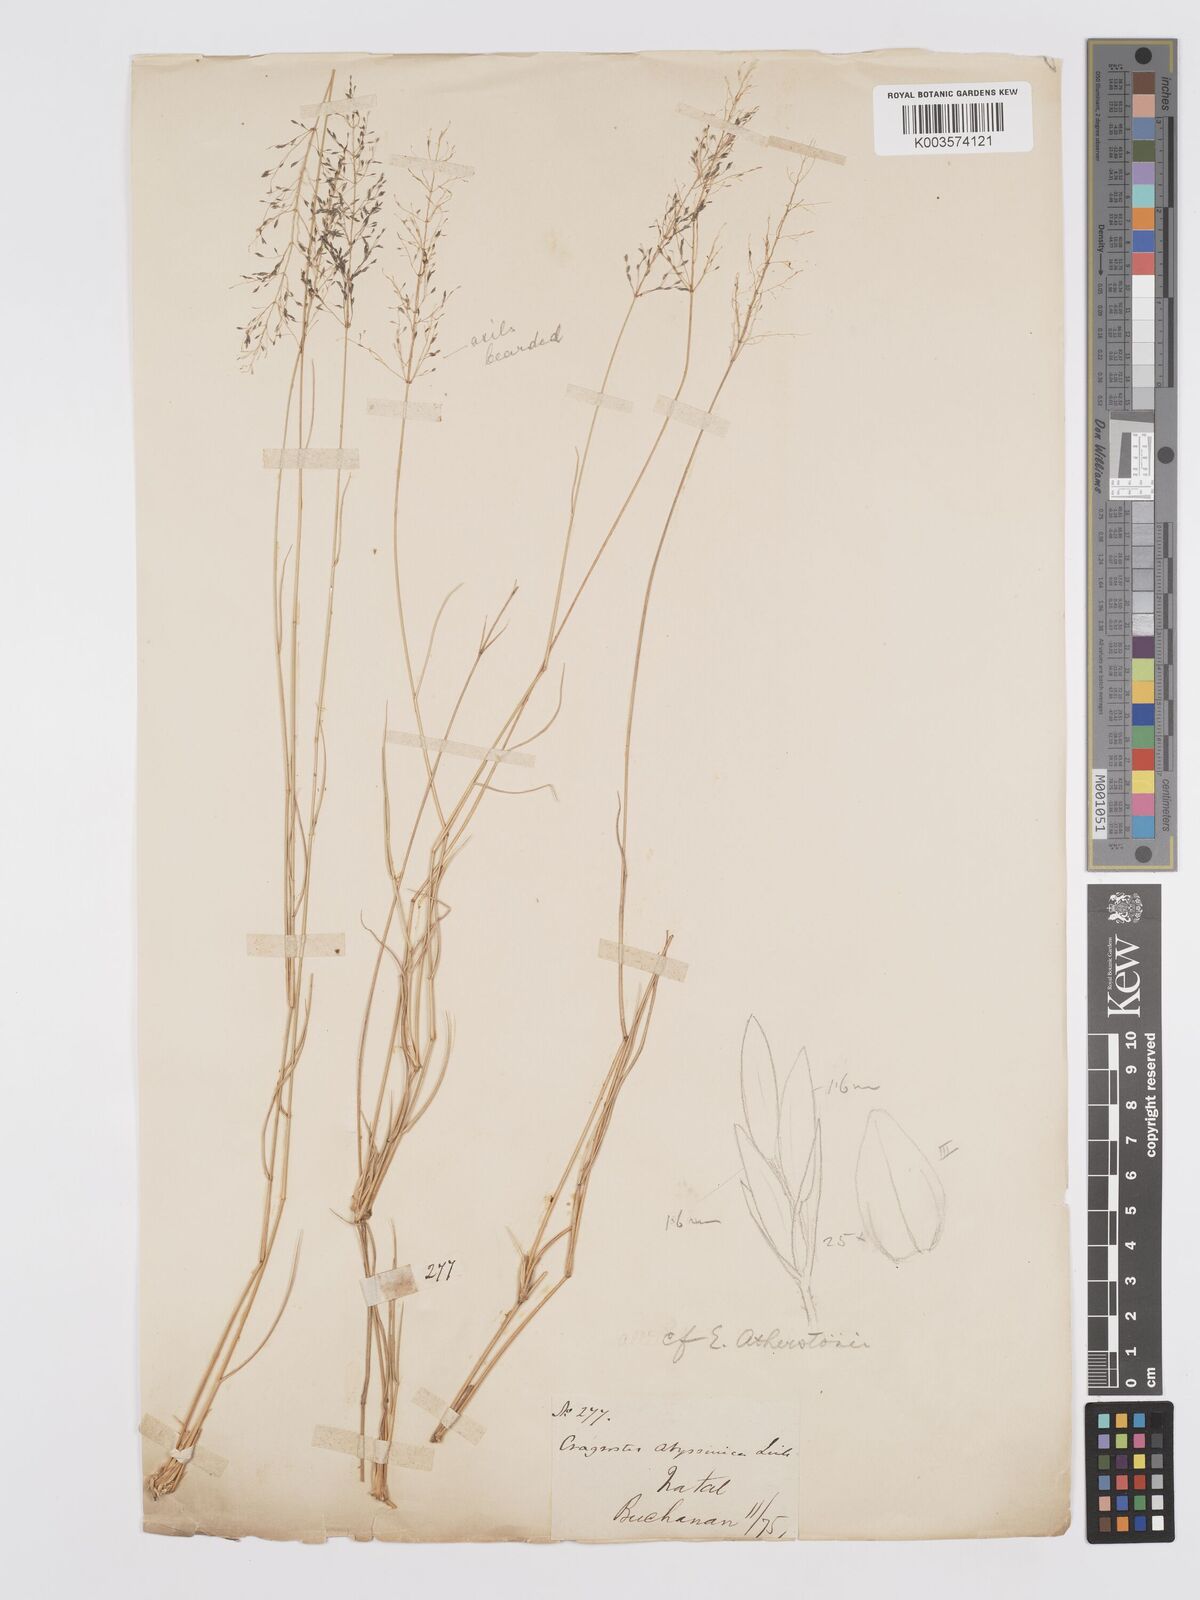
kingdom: Plantae
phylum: Tracheophyta
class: Liliopsida
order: Poales
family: Poaceae
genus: Eragrostis
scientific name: Eragrostis cylindriflora
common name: Cylinderflower lovegrass
